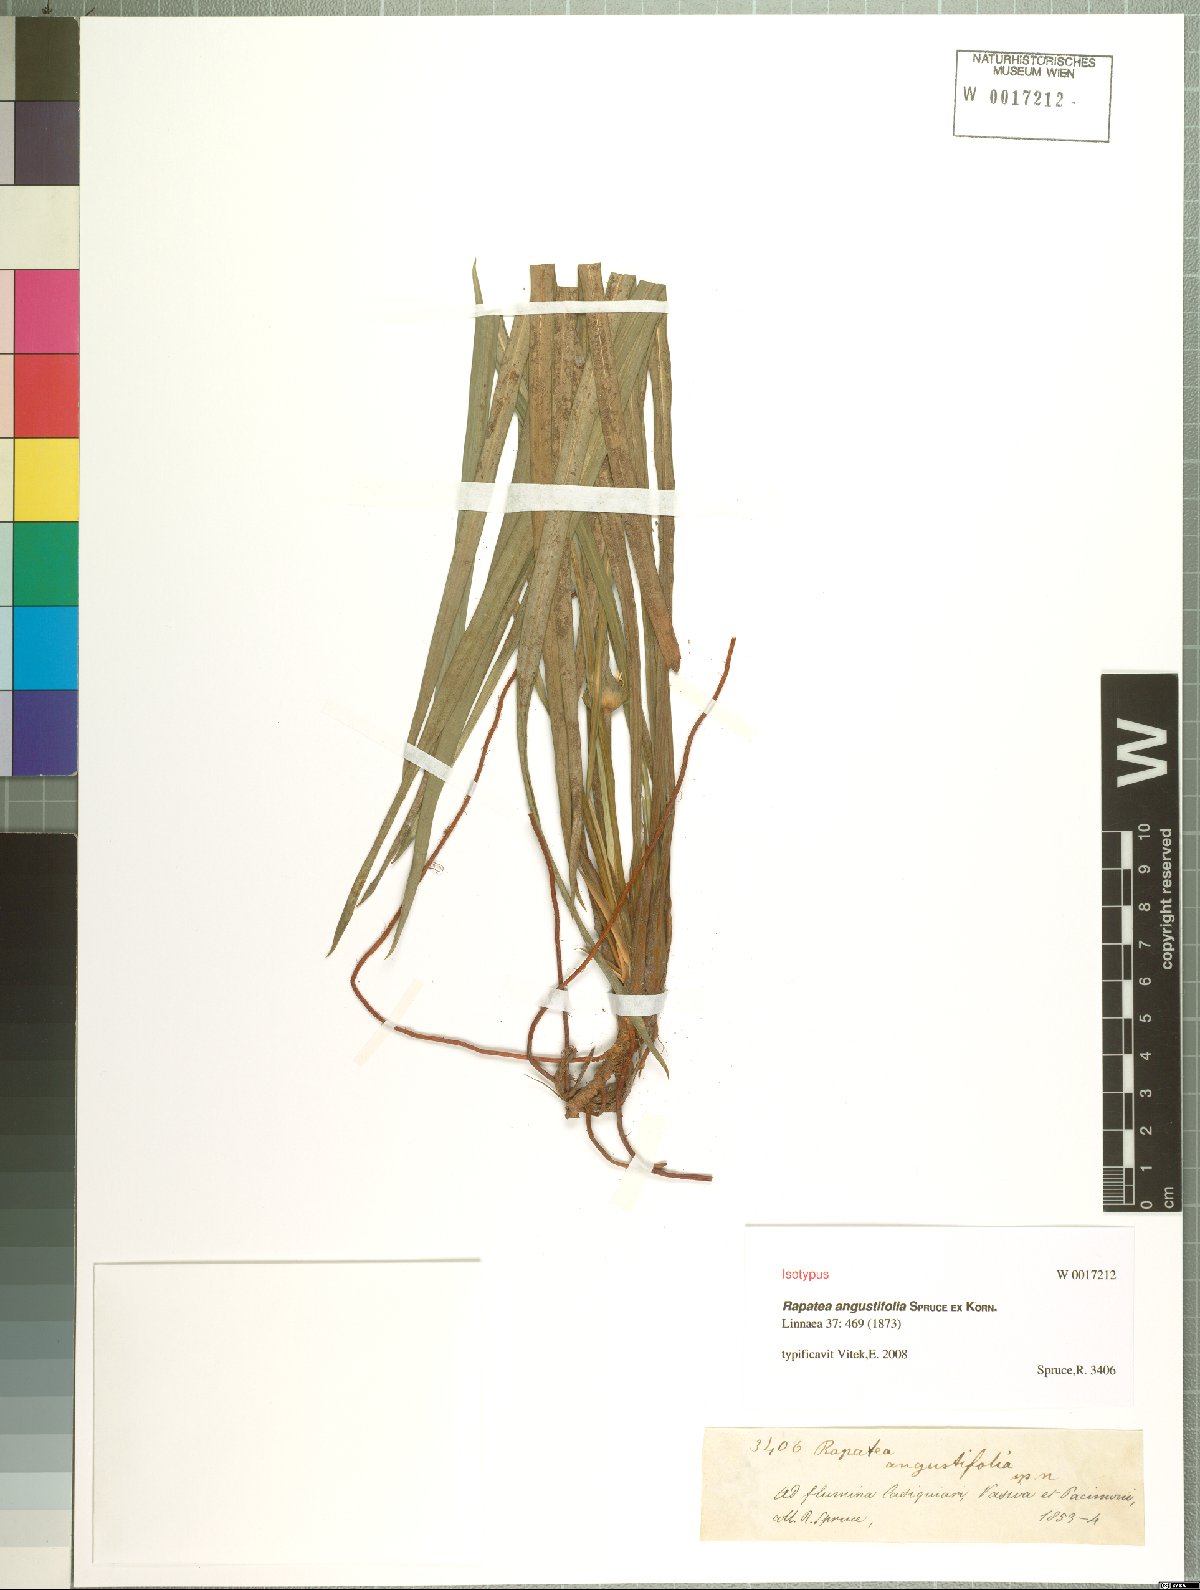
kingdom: Plantae
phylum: Tracheophyta
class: Liliopsida
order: Poales
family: Rapateaceae
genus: Rapatea
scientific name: Rapatea angustifolia
